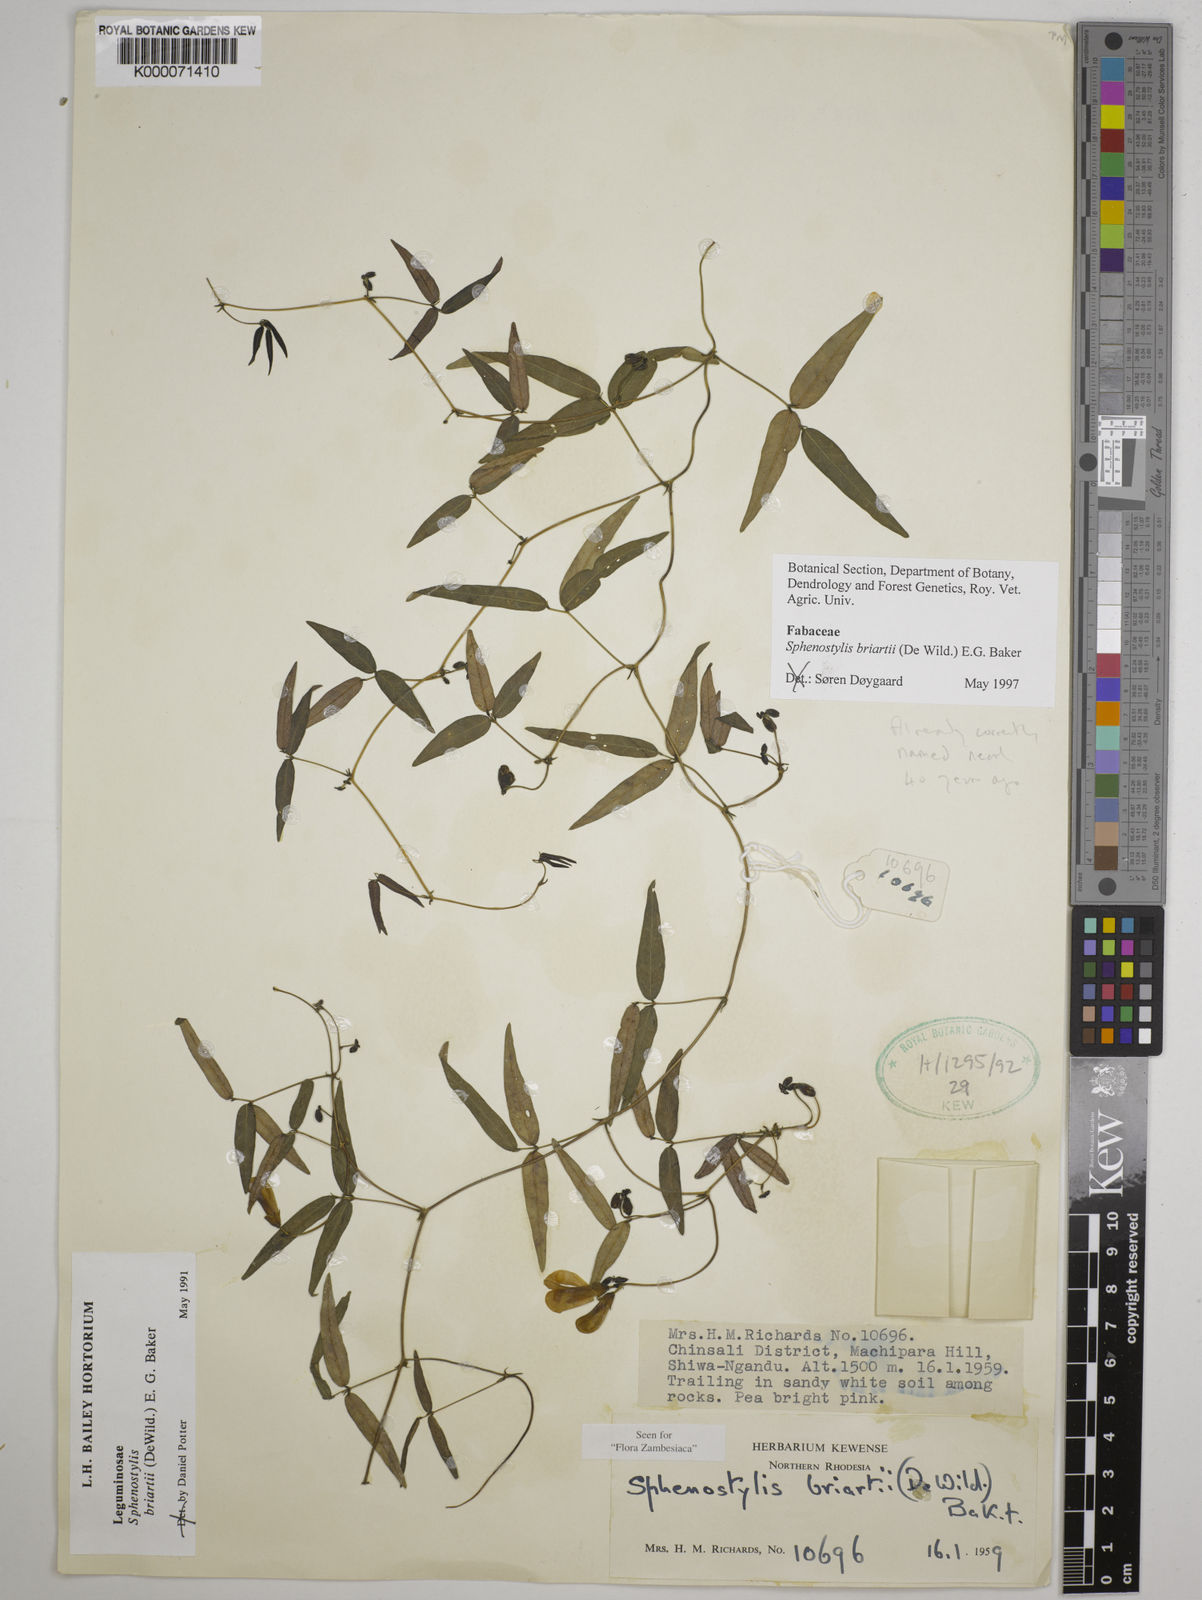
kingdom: Plantae
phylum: Tracheophyta
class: Magnoliopsida
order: Fabales
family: Fabaceae
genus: Sphenostylis
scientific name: Sphenostylis briartii
